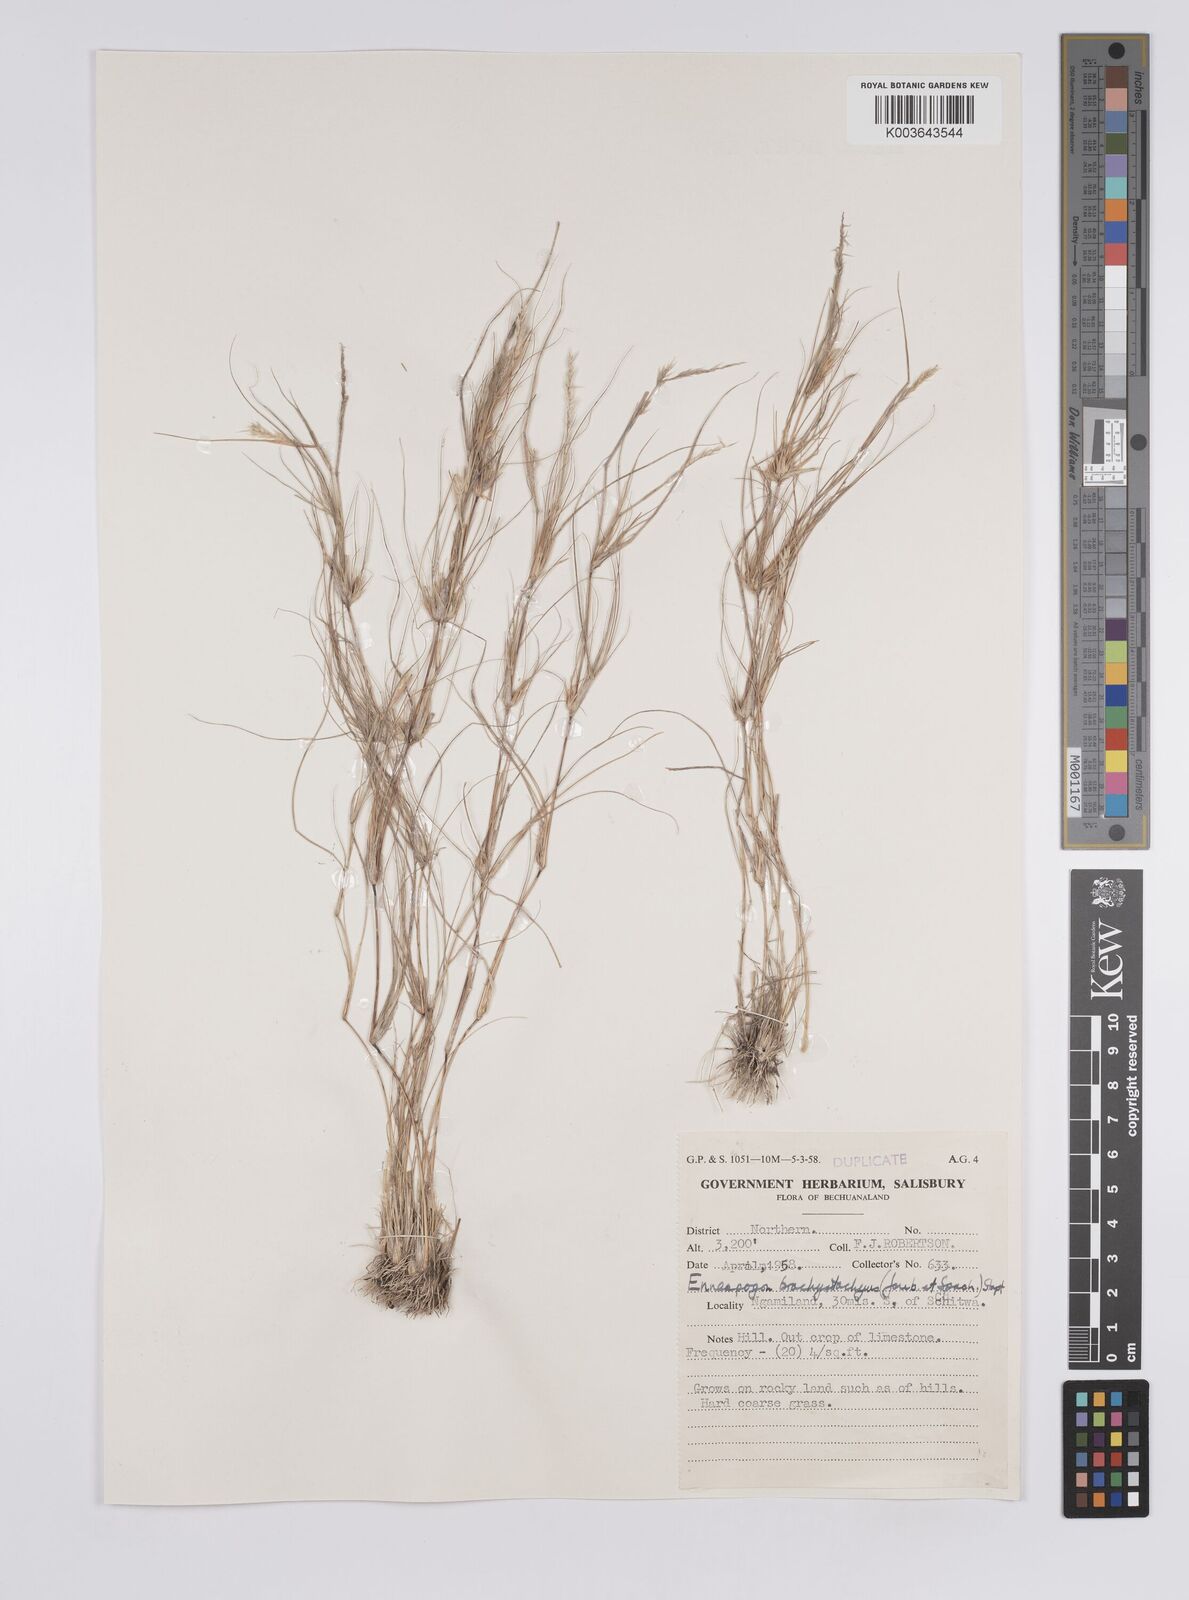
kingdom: Plantae
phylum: Tracheophyta
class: Liliopsida
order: Poales
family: Poaceae
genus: Enneapogon
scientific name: Enneapogon desvauxii
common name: Feather pappus grass
